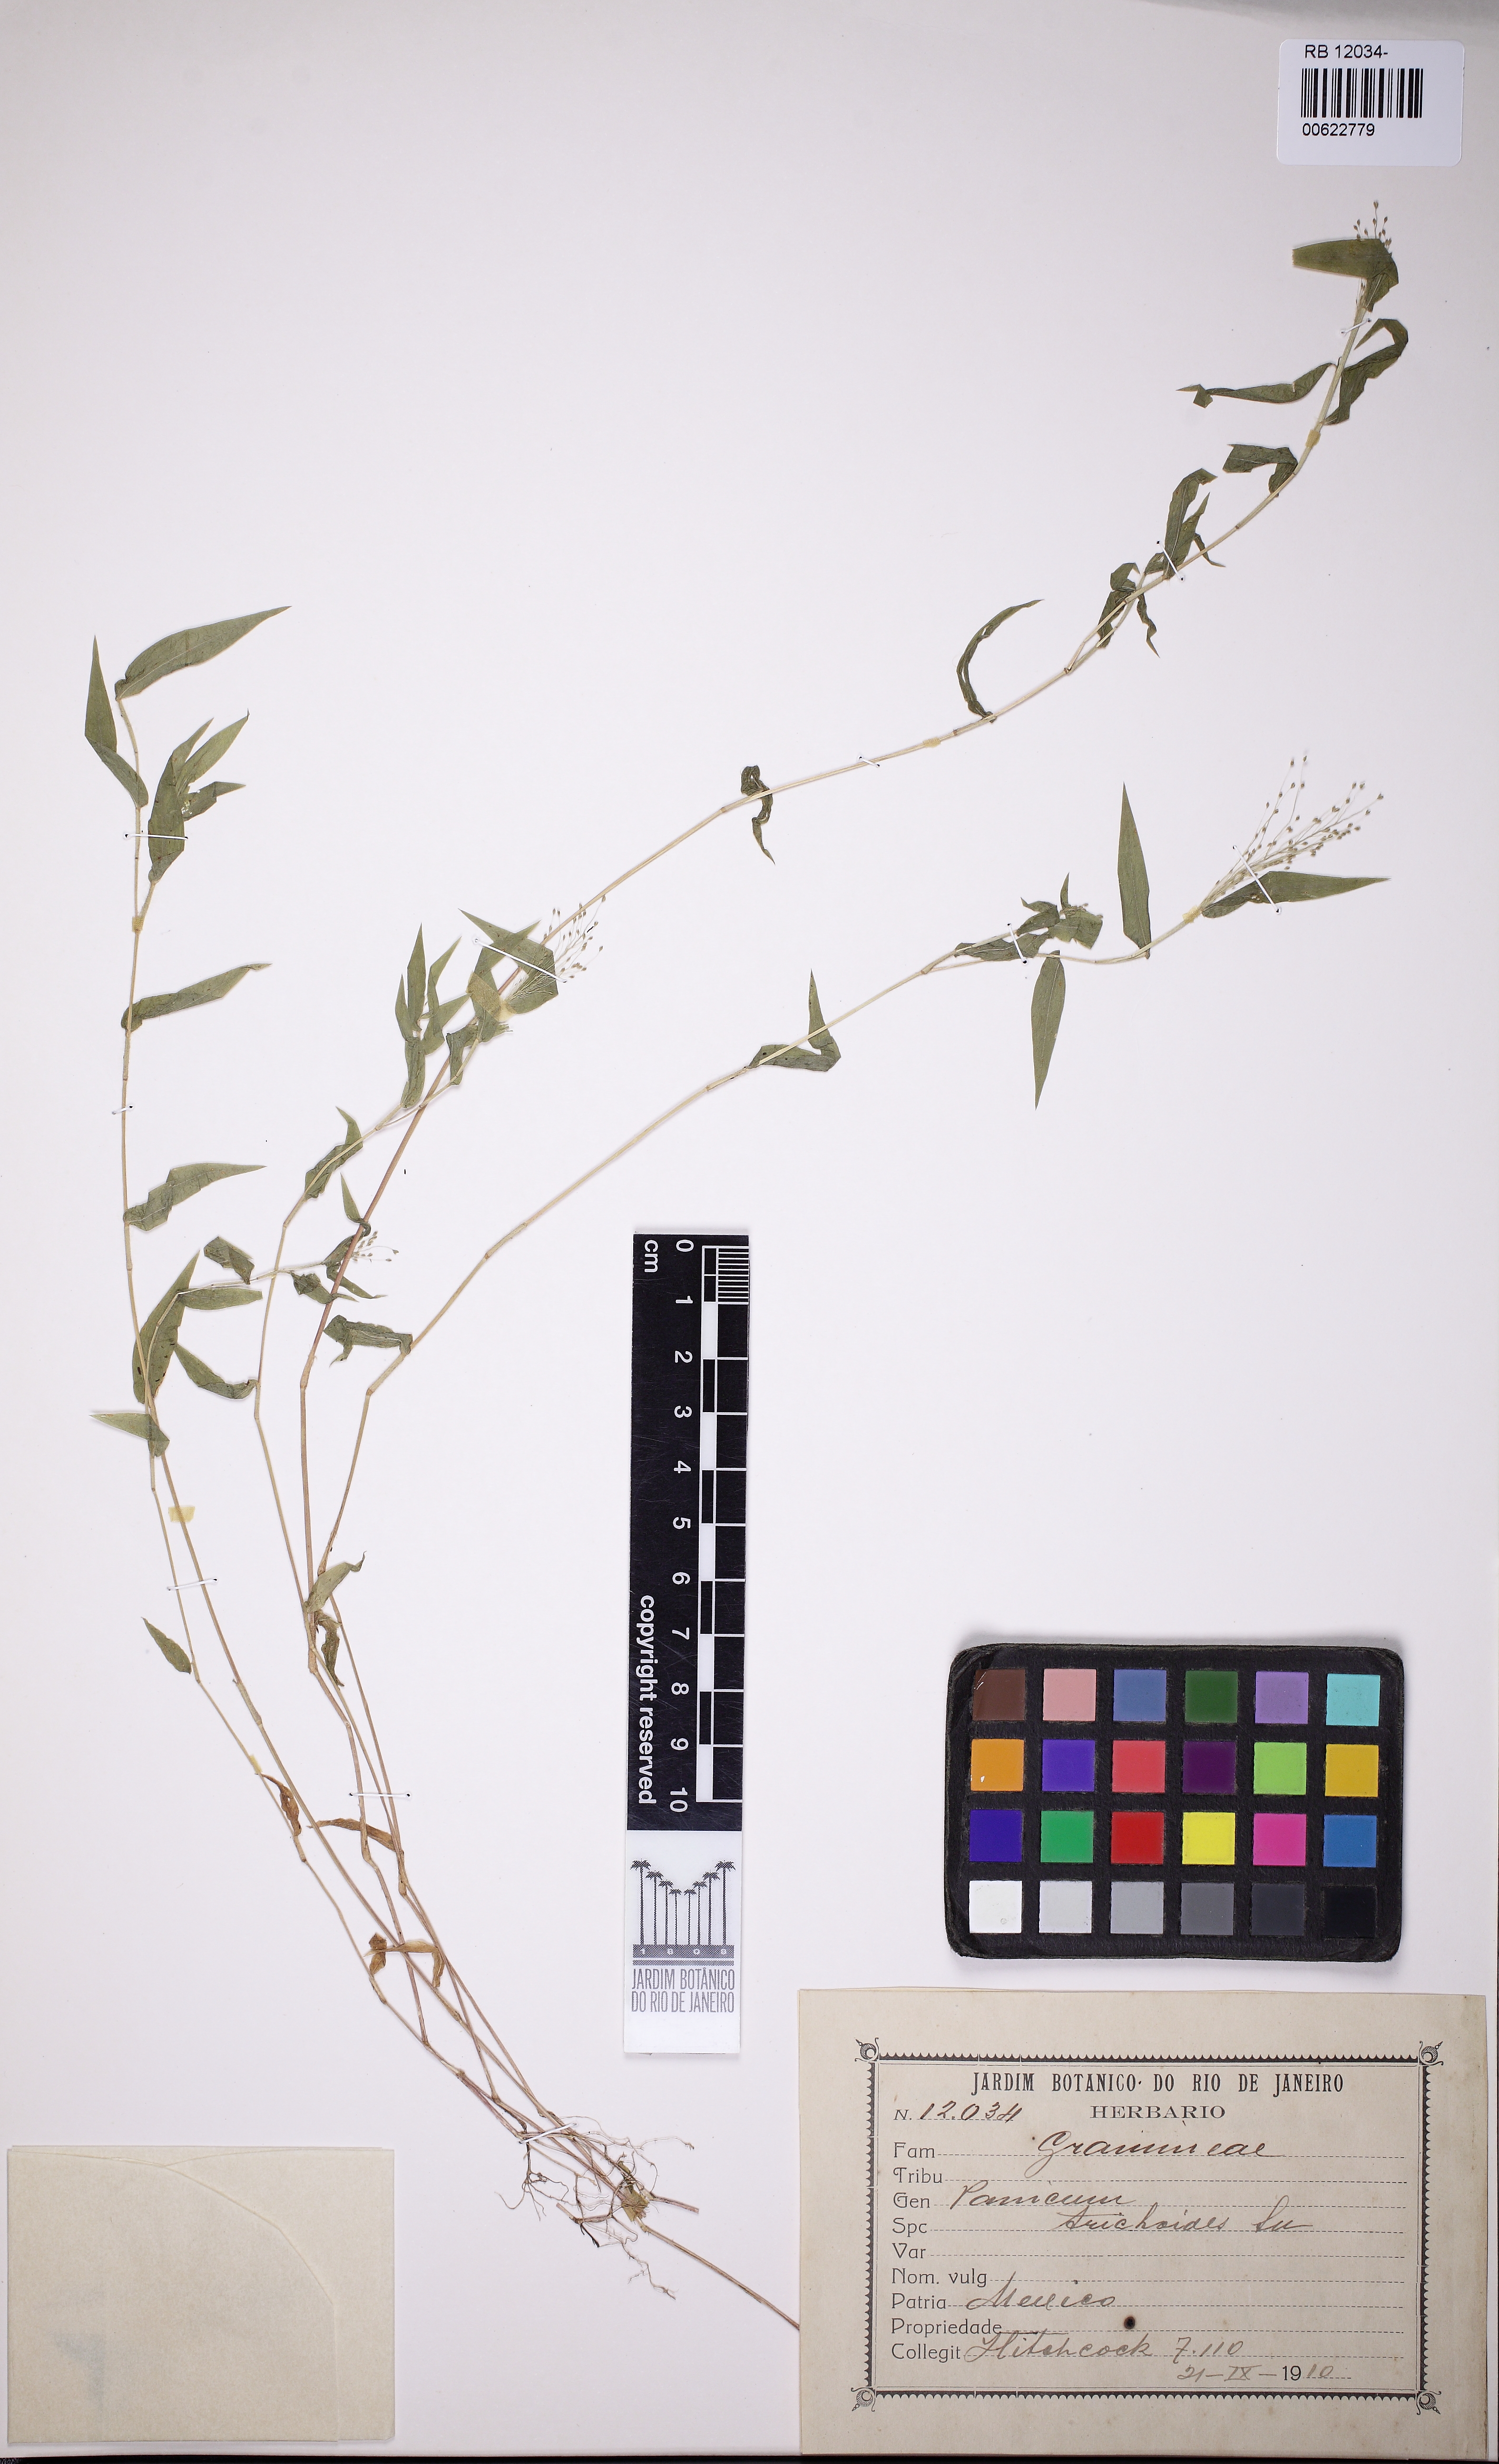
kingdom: Plantae
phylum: Tracheophyta
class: Liliopsida
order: Poales
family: Poaceae
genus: Panicum
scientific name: Panicum trichoides
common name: Tickle grass
